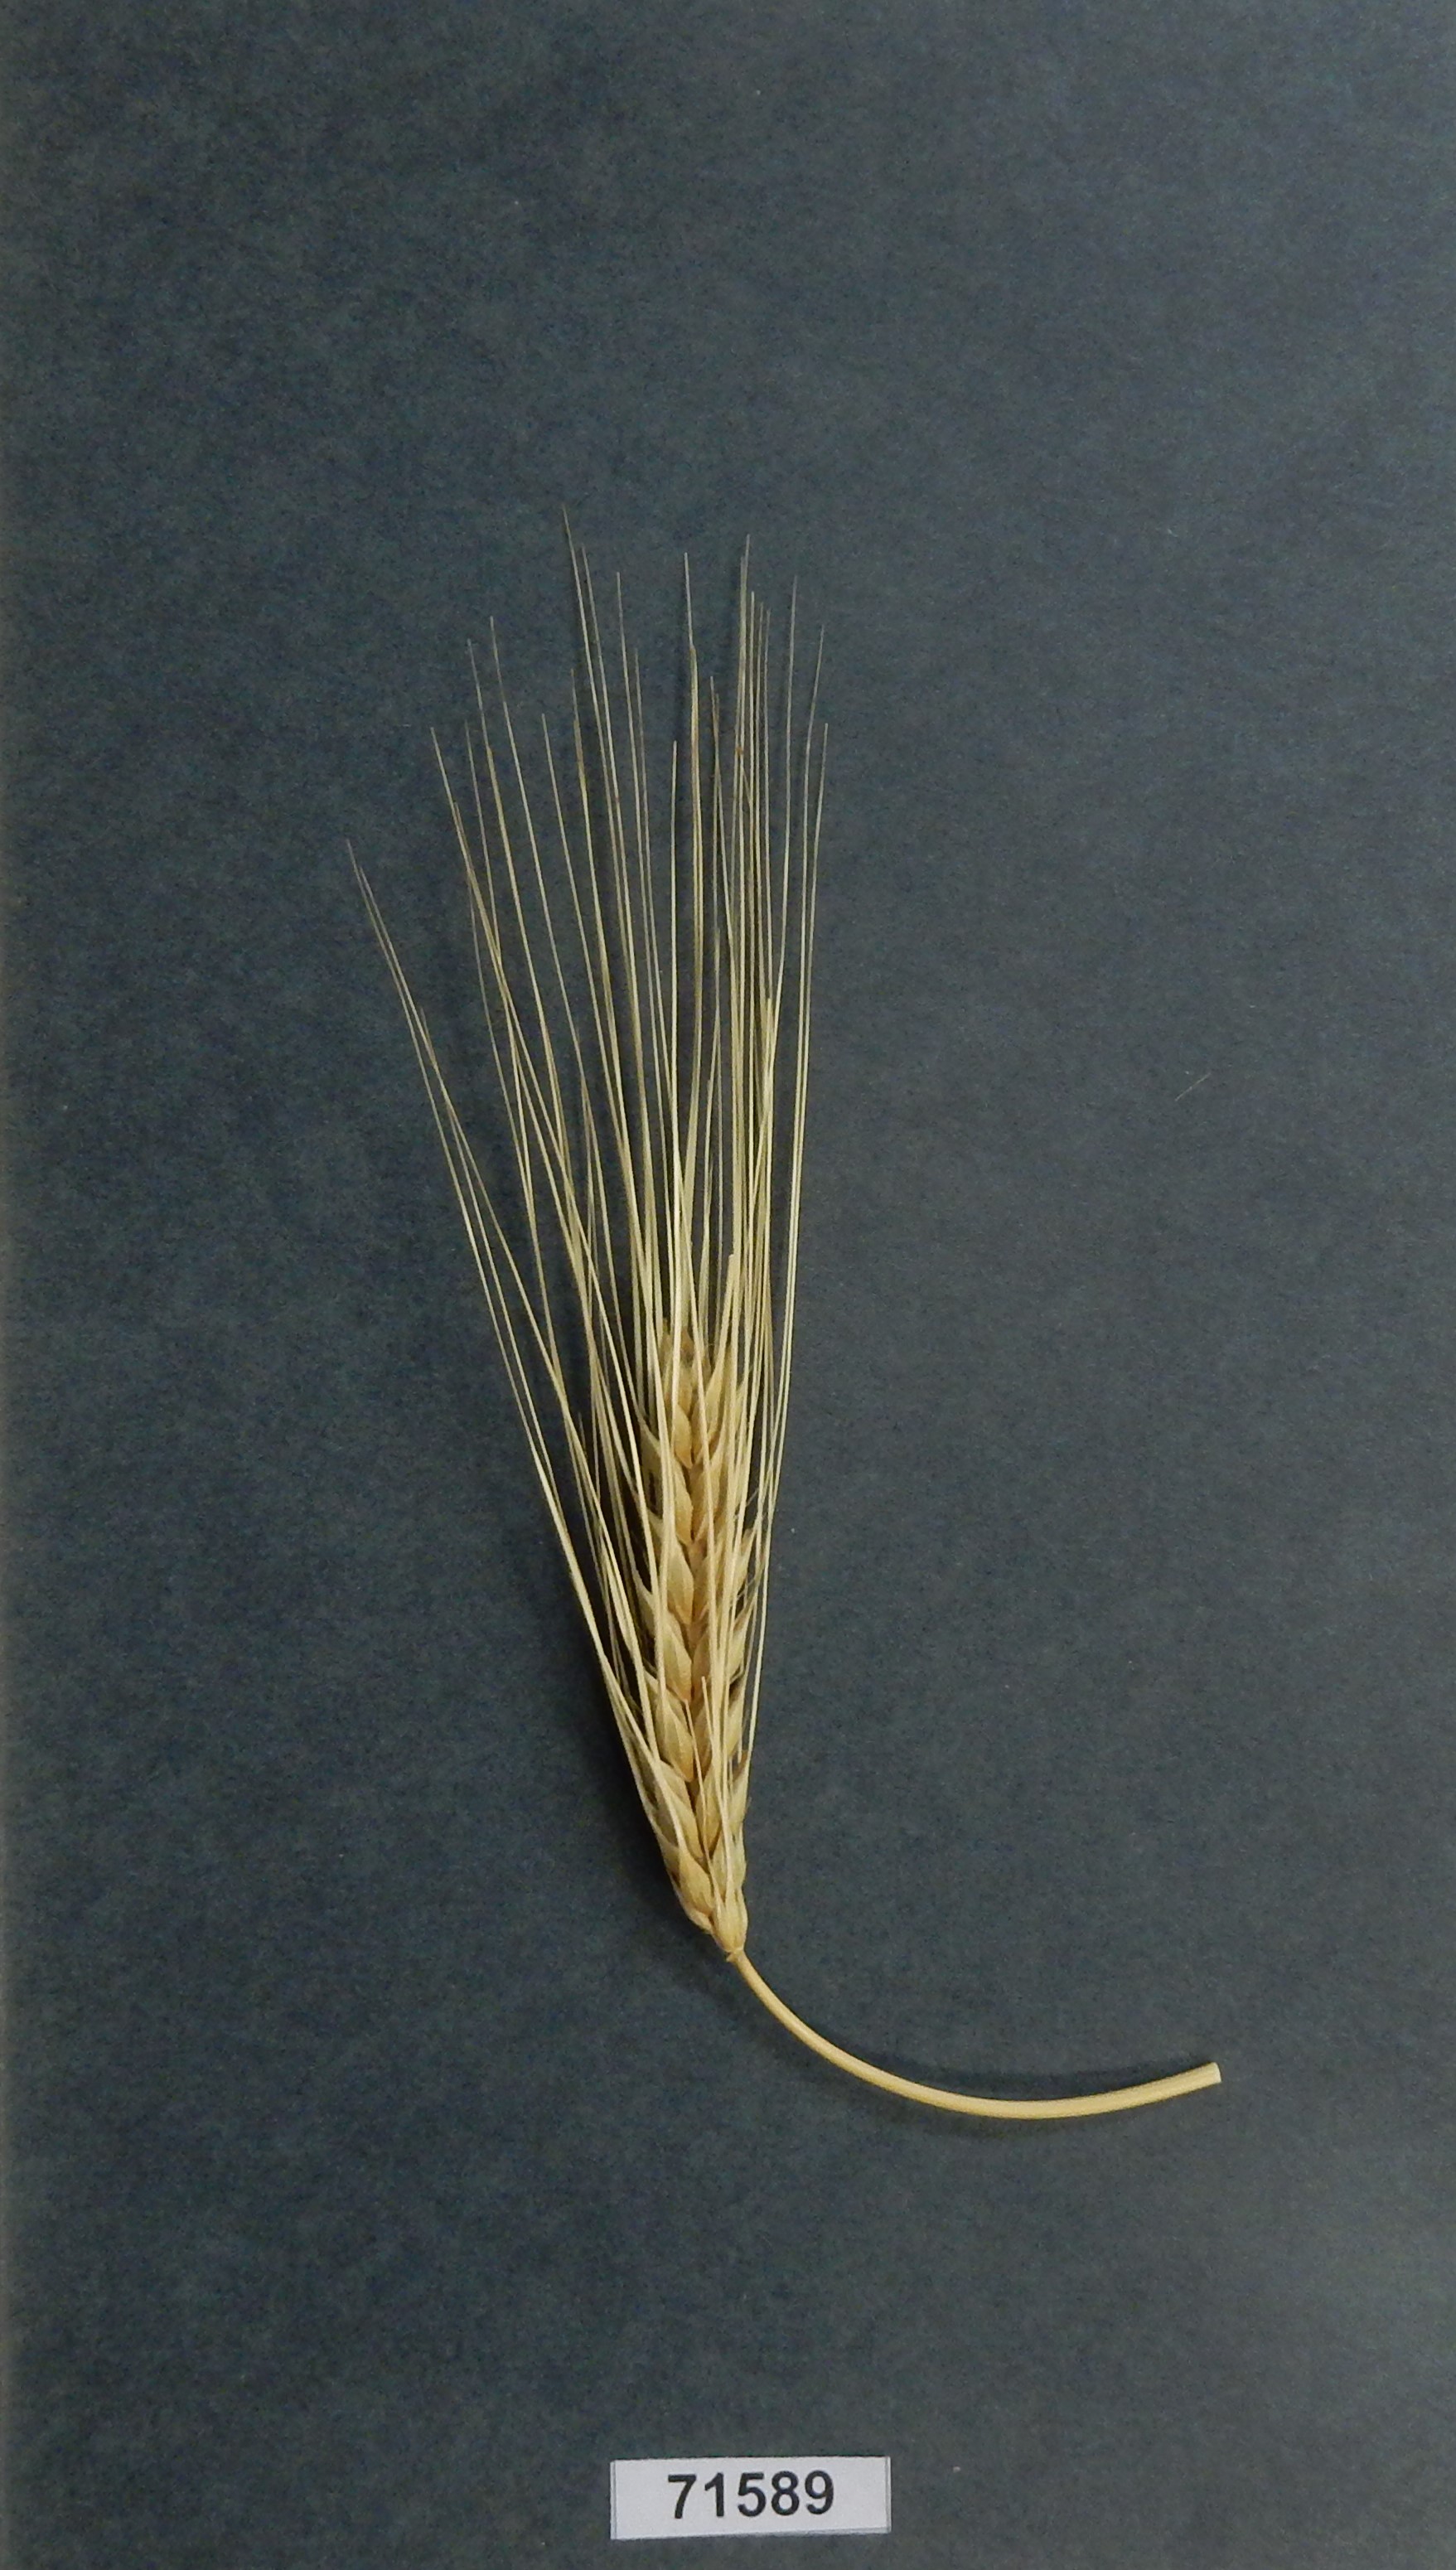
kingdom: Plantae
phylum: Tracheophyta
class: Liliopsida
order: Poales
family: Poaceae
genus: Hordeum
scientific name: Hordeum vulgare
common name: Barley
